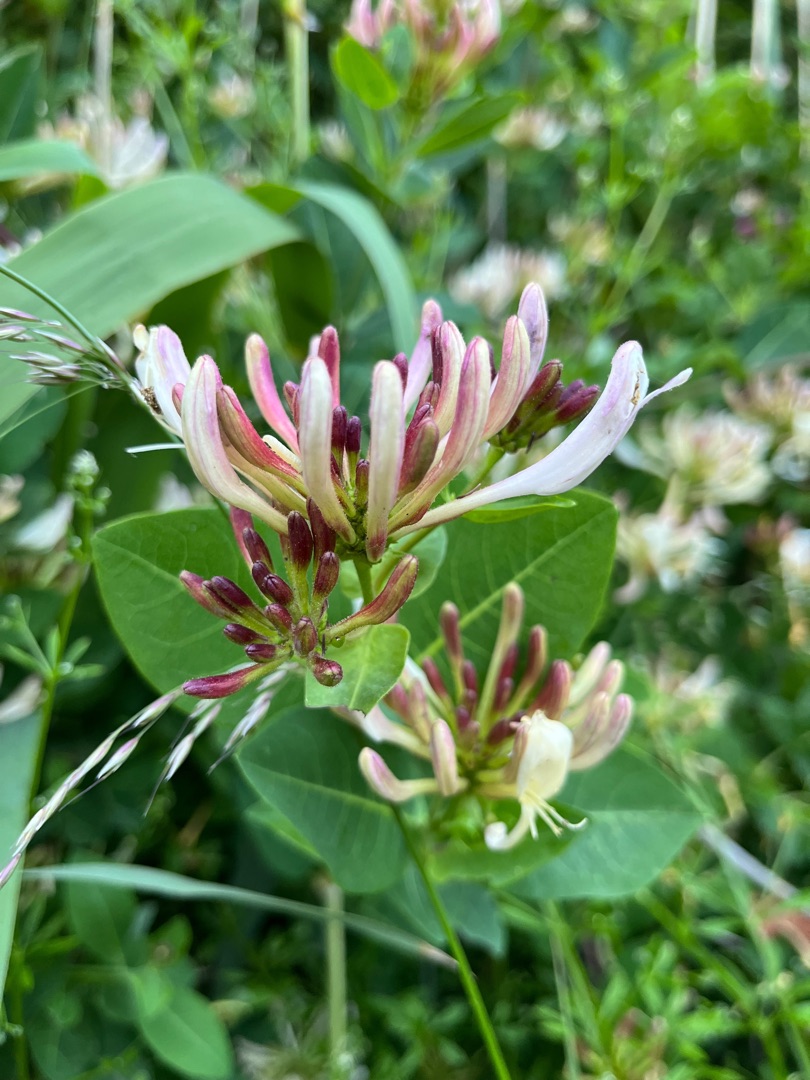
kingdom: Plantae
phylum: Tracheophyta
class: Magnoliopsida
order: Dipsacales
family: Caprifoliaceae
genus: Lonicera
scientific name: Lonicera periclymenum
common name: Almindelig gedeblad
